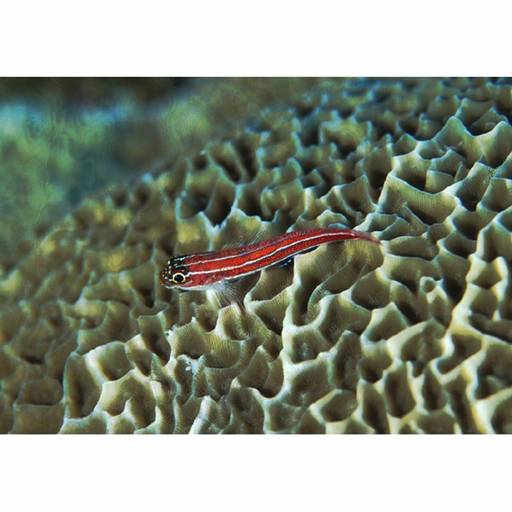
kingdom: Animalia
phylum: Chordata
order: Perciformes
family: Tripterygiidae
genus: Helcogramma
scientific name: Helcogramma striata
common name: Striped threefin
